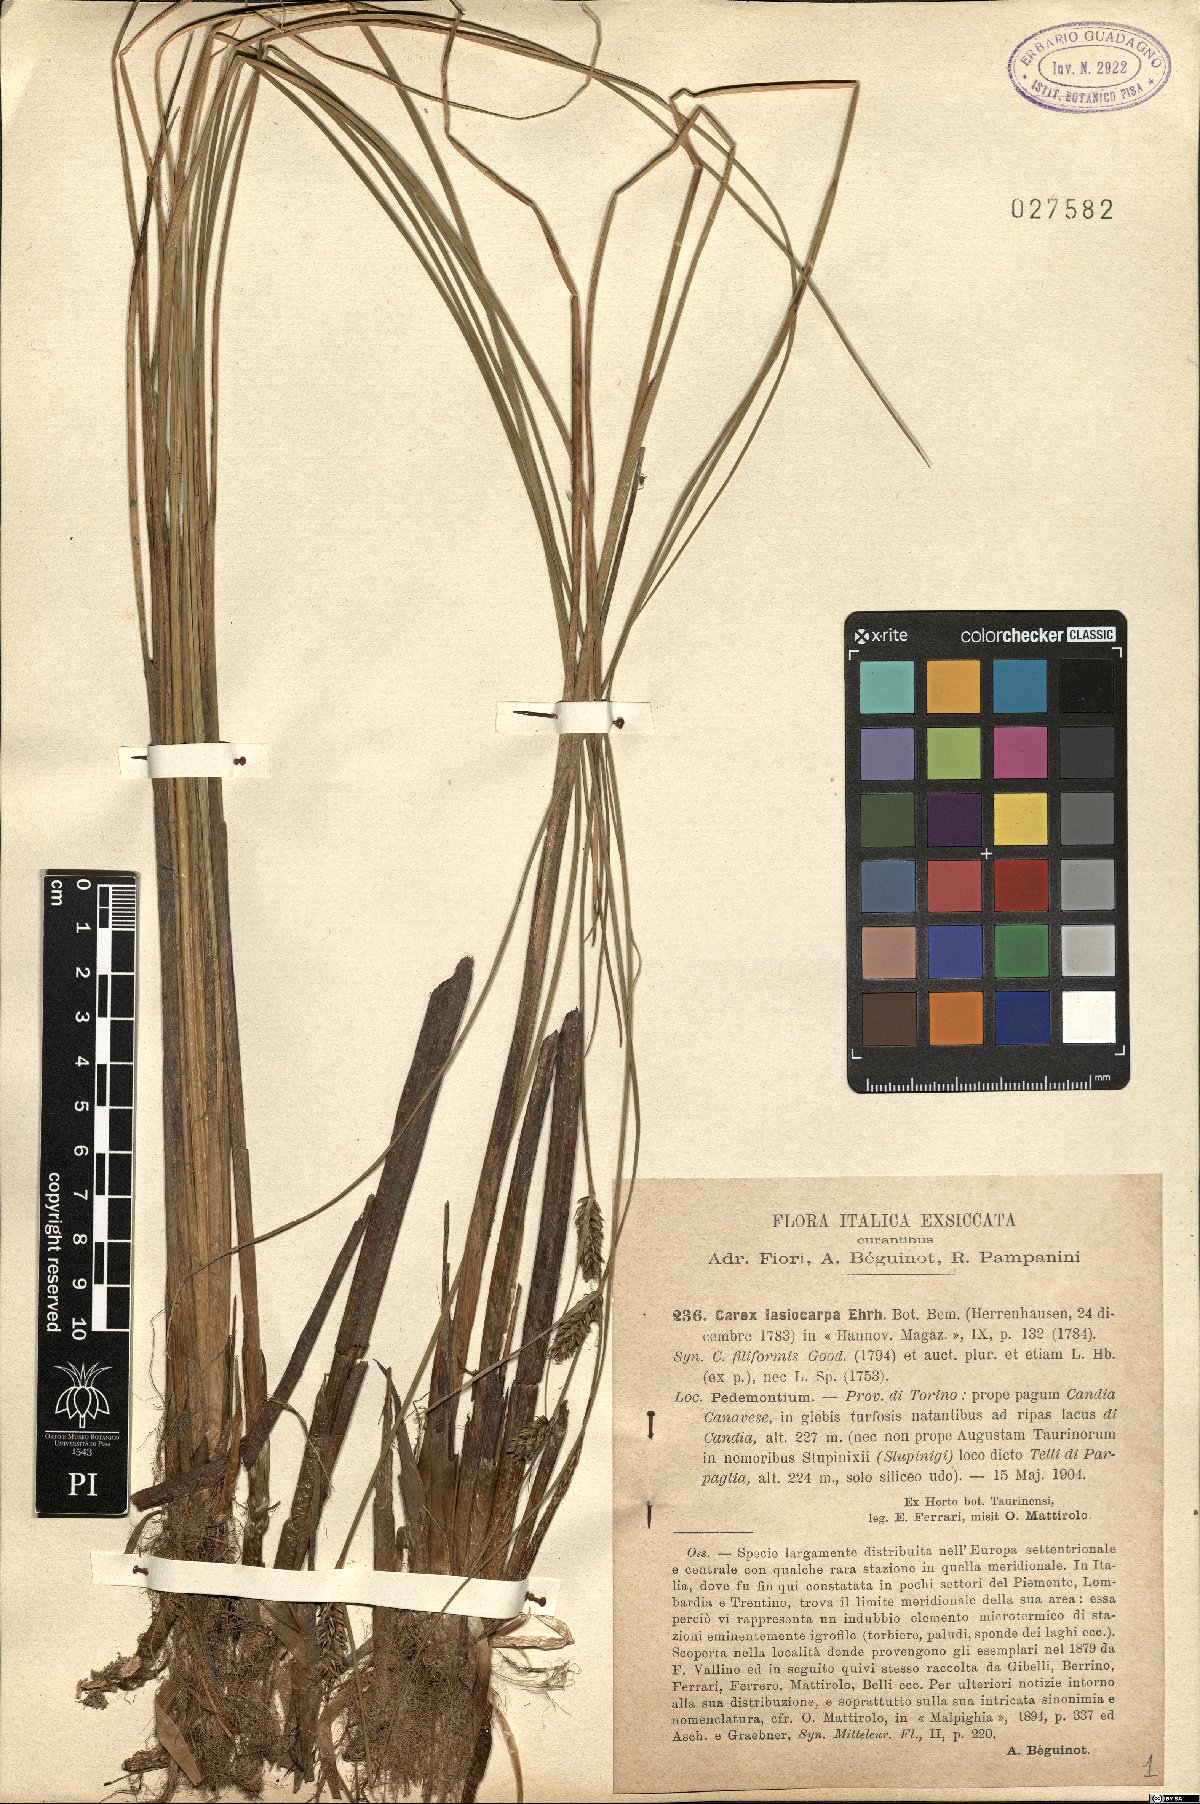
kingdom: Plantae
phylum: Tracheophyta
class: Liliopsida
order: Poales
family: Cyperaceae
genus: Carex
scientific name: Carex lasiocarpa
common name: Slender sedge
